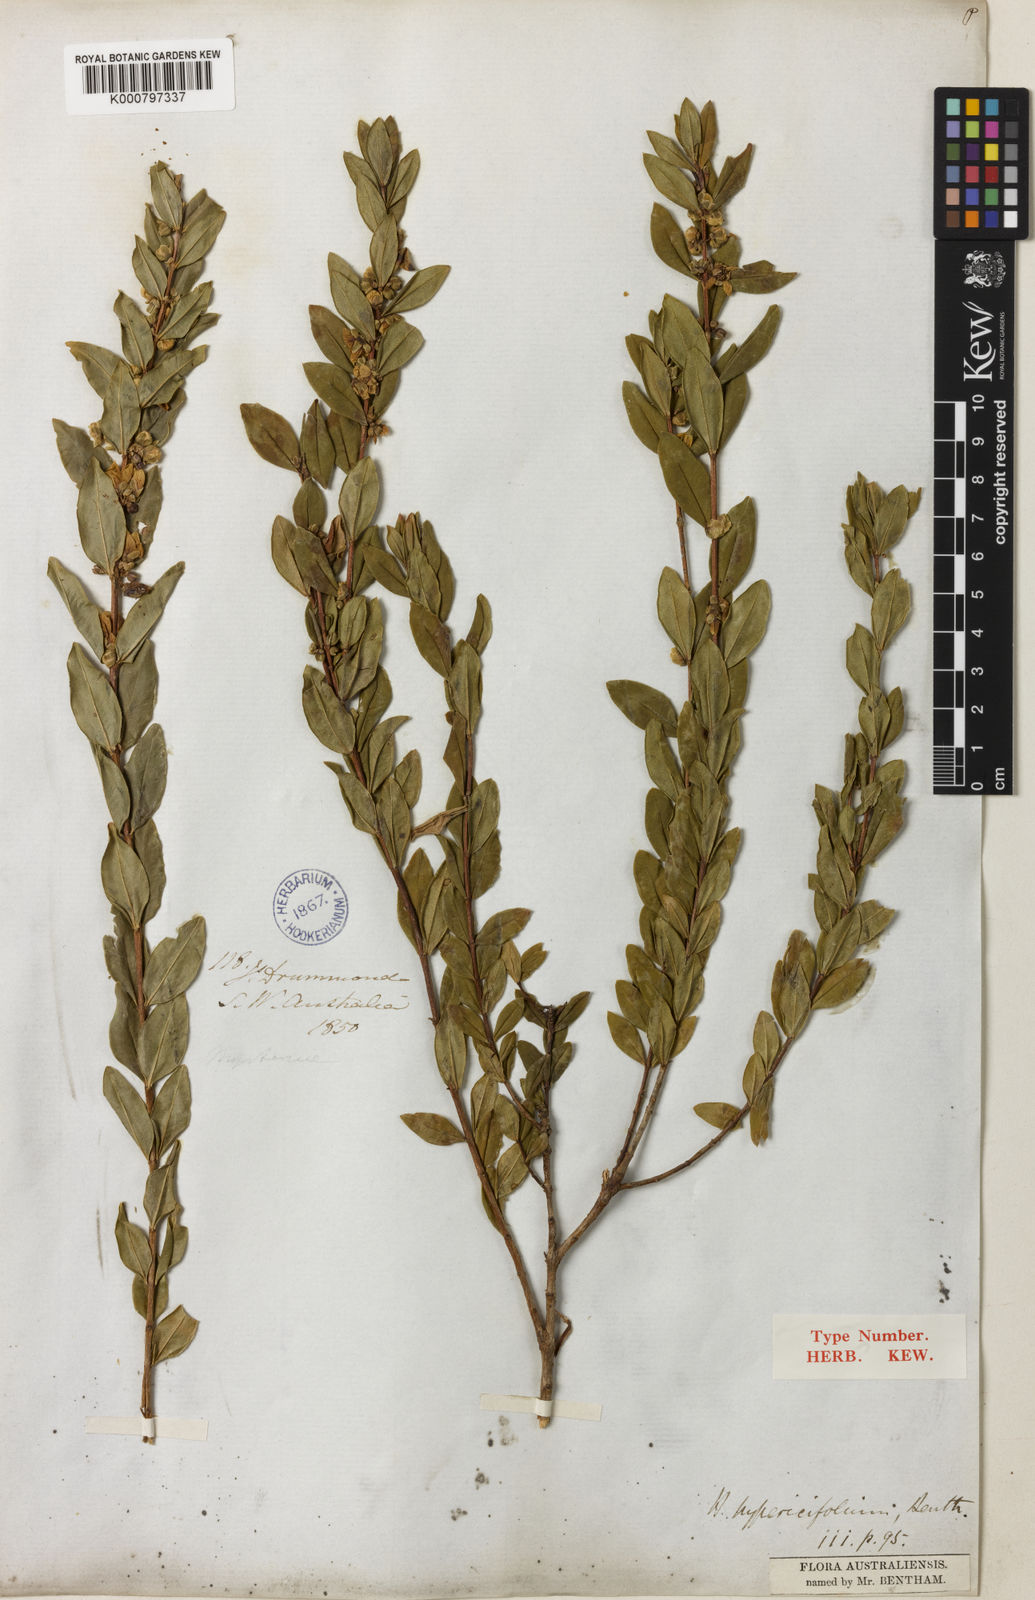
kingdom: Plantae
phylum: Tracheophyta
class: Magnoliopsida
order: Myrtales
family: Myrtaceae
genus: Hypocalymma
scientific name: Hypocalymma myrtifolium
